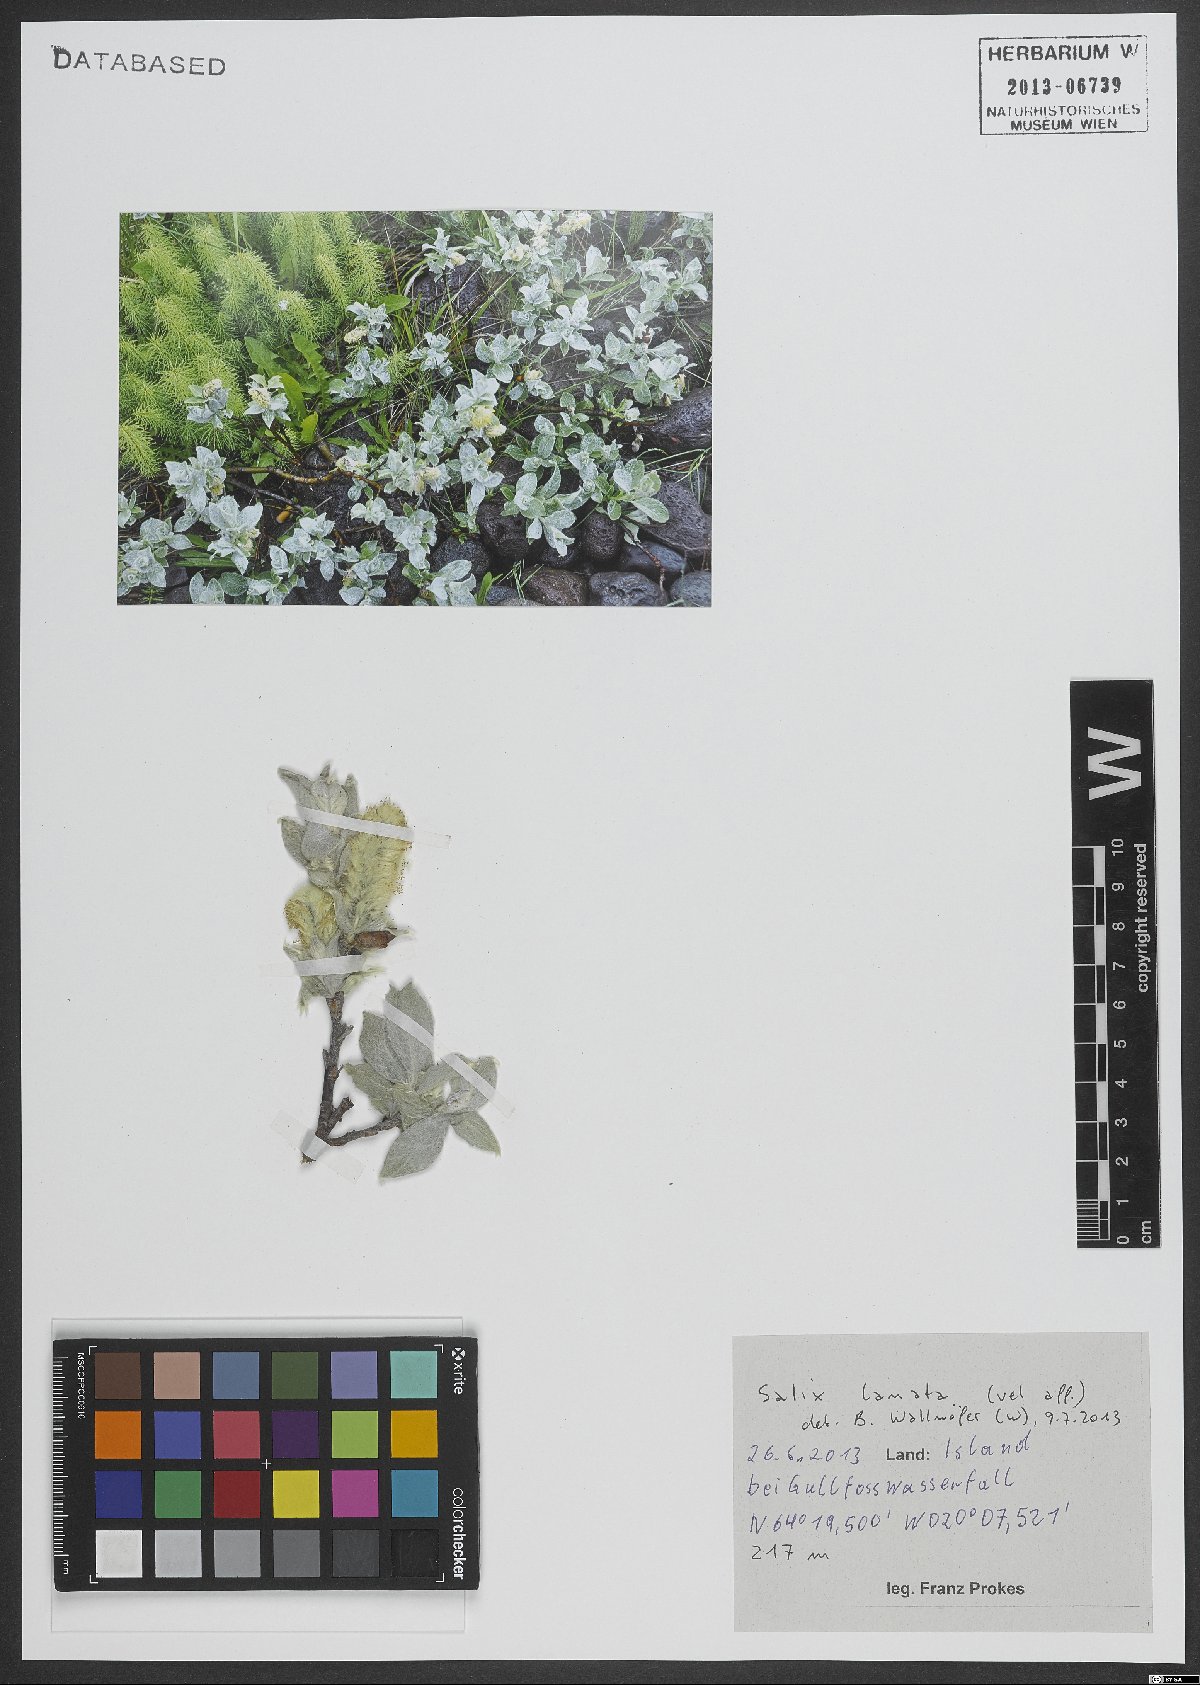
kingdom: Plantae
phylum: Tracheophyta
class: Magnoliopsida
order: Malpighiales
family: Salicaceae
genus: Salix
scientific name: Salix lanata
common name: Woolly willow
